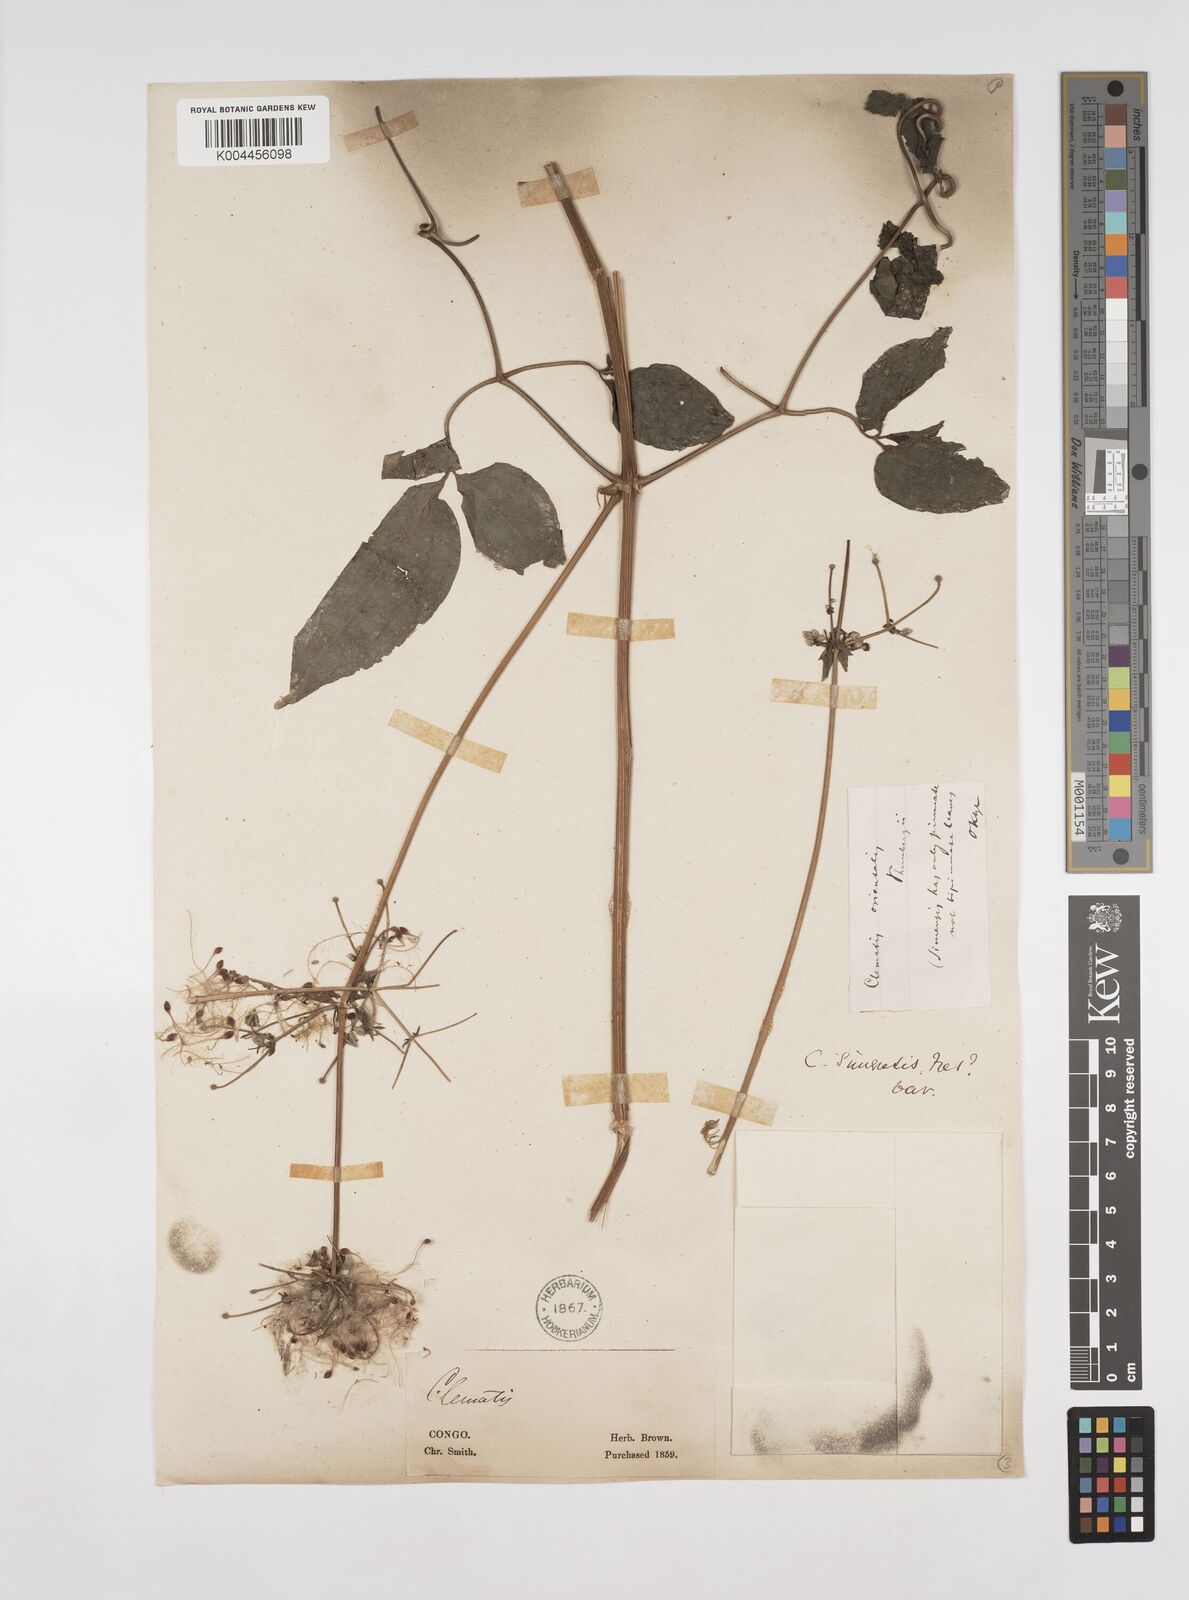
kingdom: Plantae
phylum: Tracheophyta
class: Magnoliopsida
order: Ranunculales
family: Ranunculaceae
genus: Clematis
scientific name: Clematis simensis
